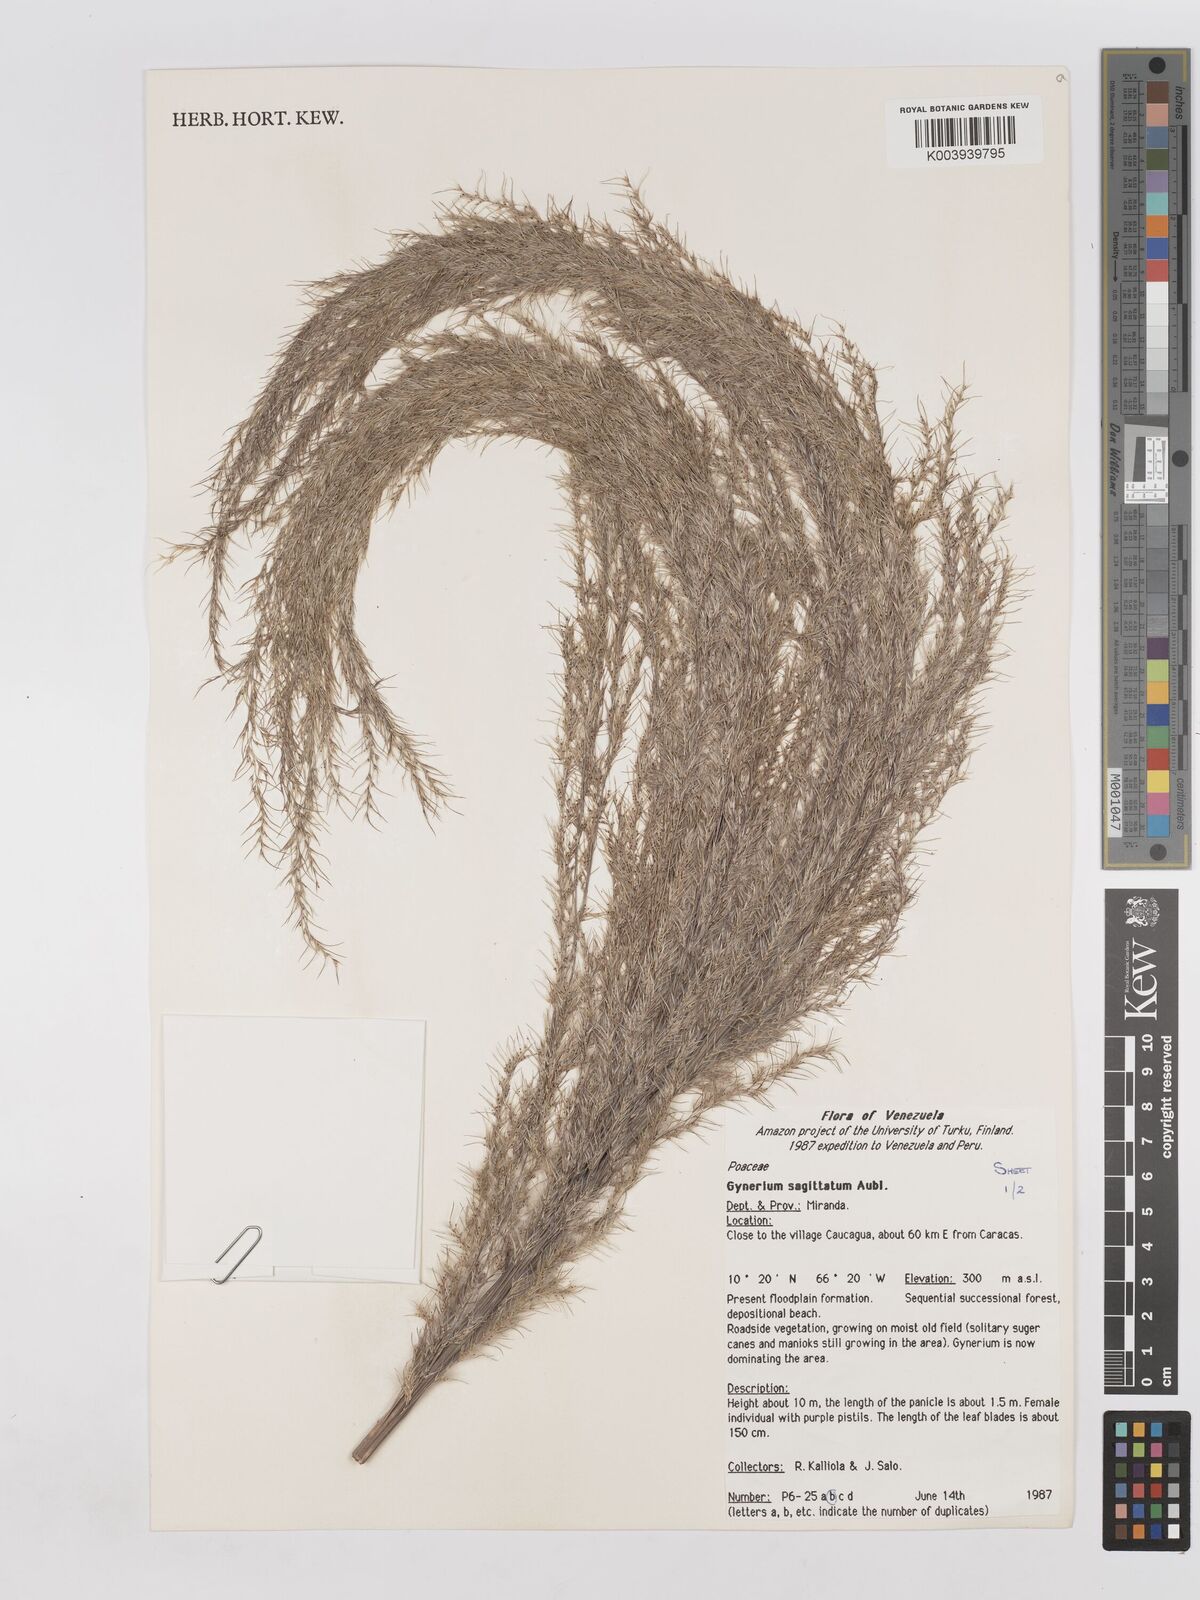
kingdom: Plantae
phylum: Tracheophyta
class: Liliopsida
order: Poales
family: Poaceae
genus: Gynerium
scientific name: Gynerium sagittatum
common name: Wild cane
